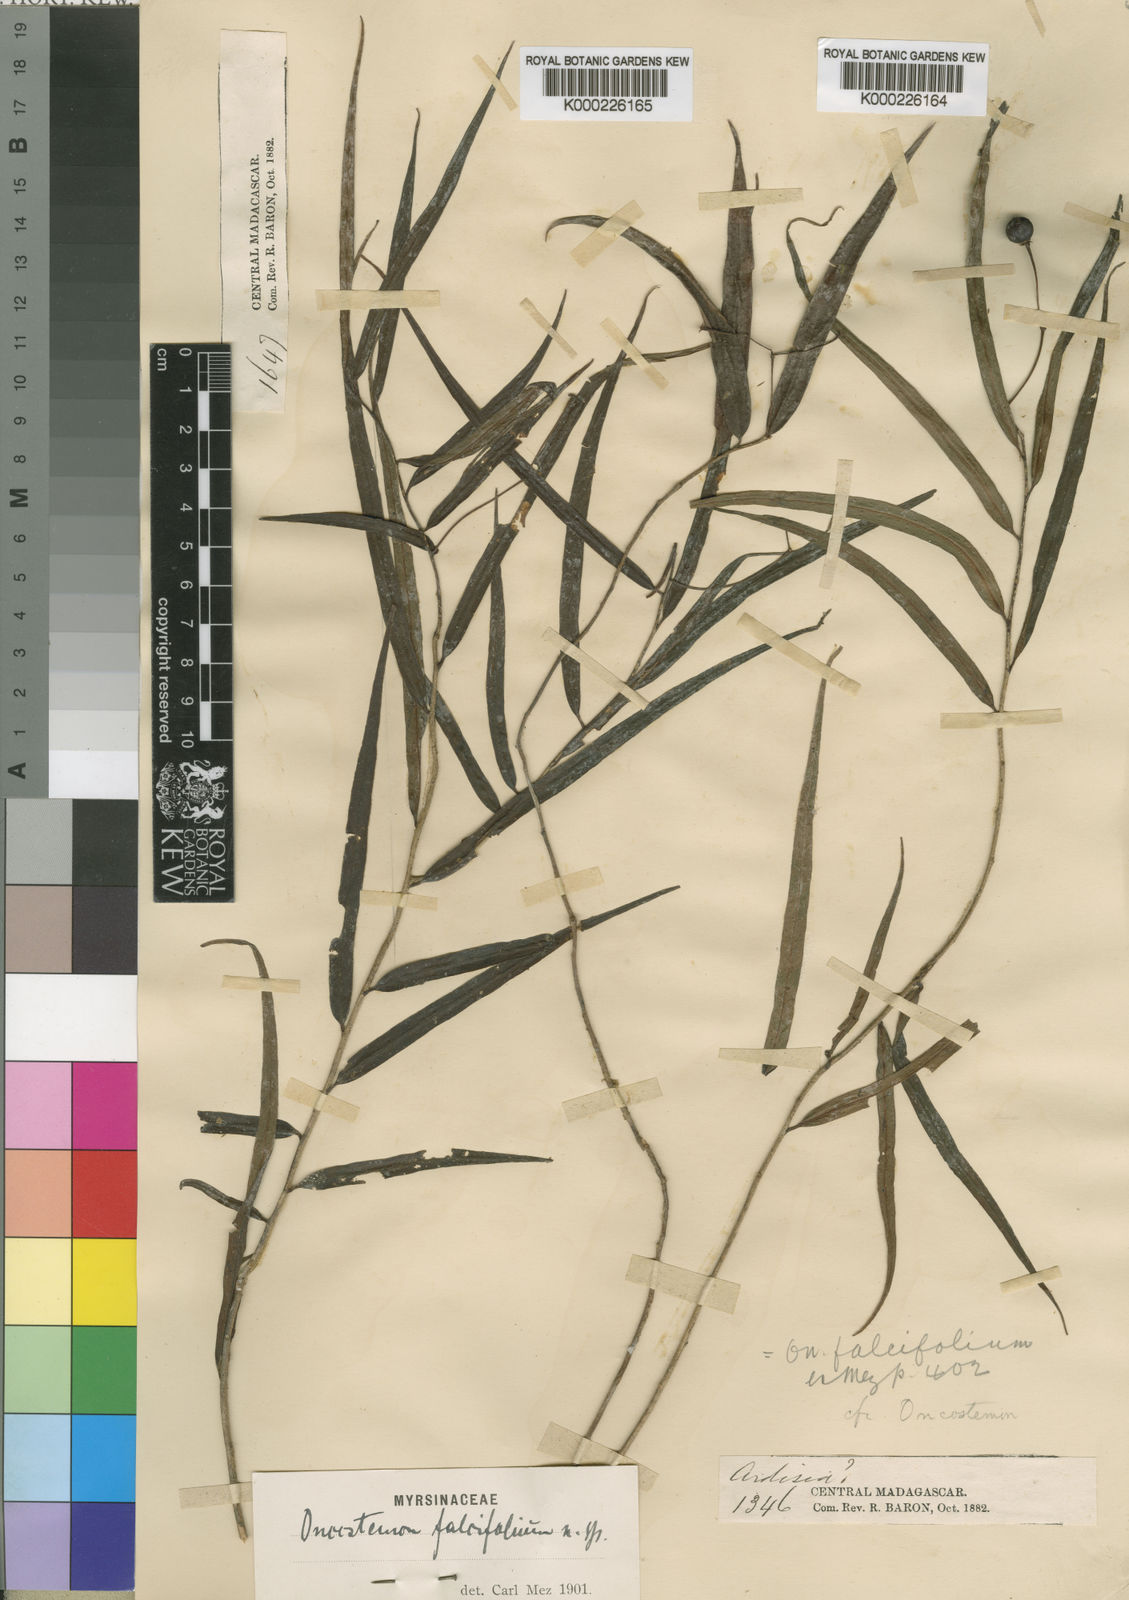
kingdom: Plantae
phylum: Tracheophyta
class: Magnoliopsida
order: Ericales
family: Primulaceae
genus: Oncostemum
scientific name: Oncostemum falcifolium
